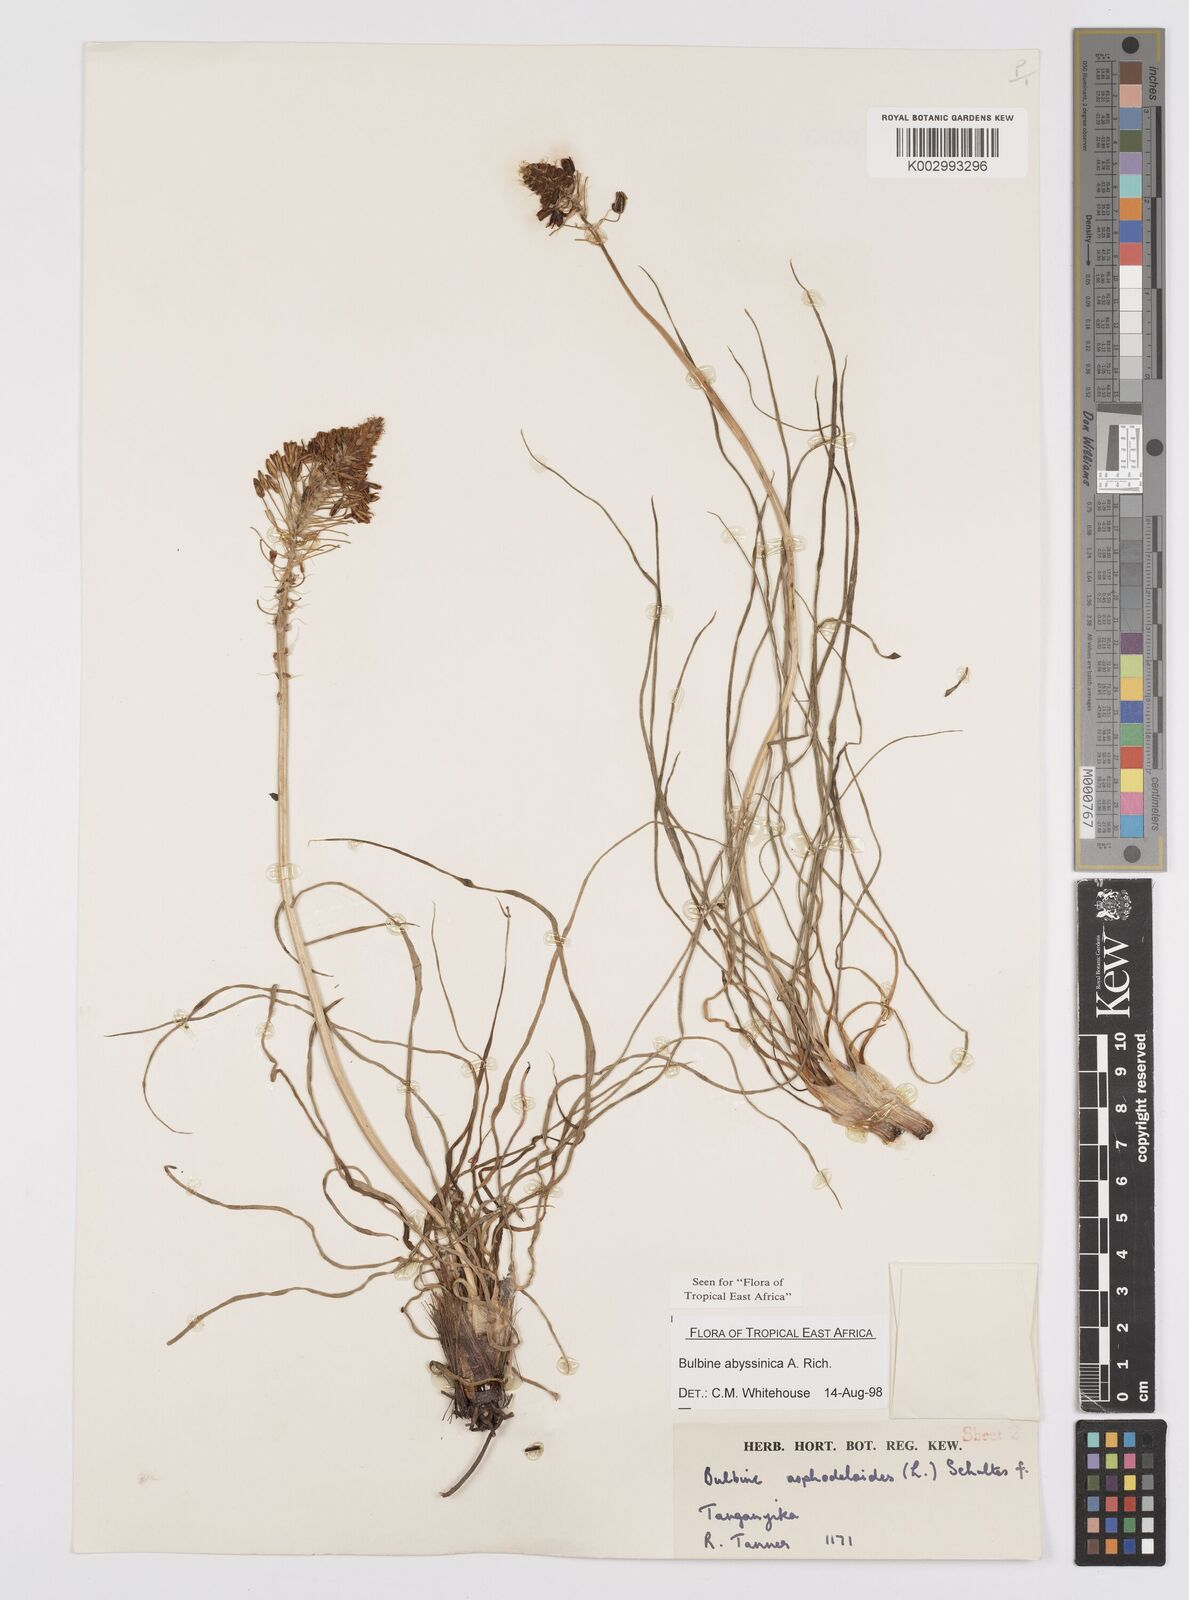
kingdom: Plantae
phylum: Tracheophyta
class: Liliopsida
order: Asparagales
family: Asphodelaceae
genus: Bulbine
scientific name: Bulbine abyssinica
